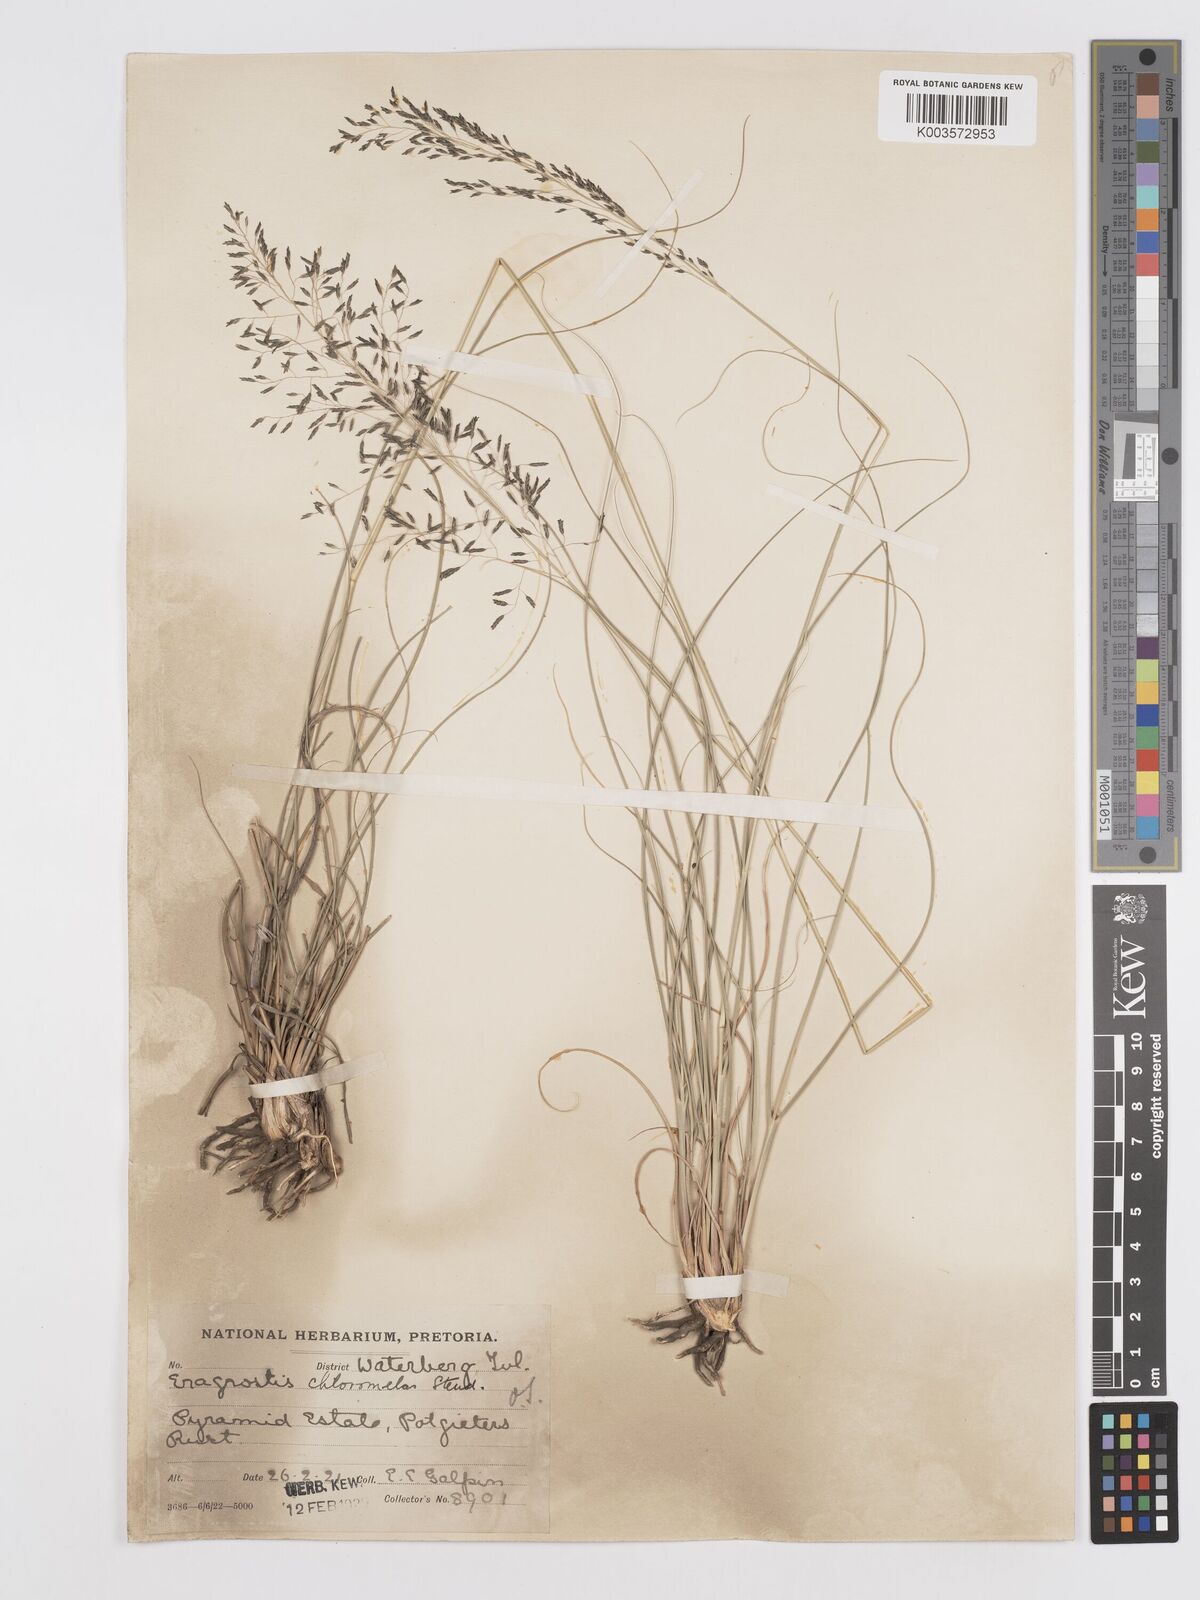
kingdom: Plantae
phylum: Tracheophyta
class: Liliopsida
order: Poales
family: Poaceae
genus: Eragrostis
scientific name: Eragrostis curvula
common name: African love-grass
